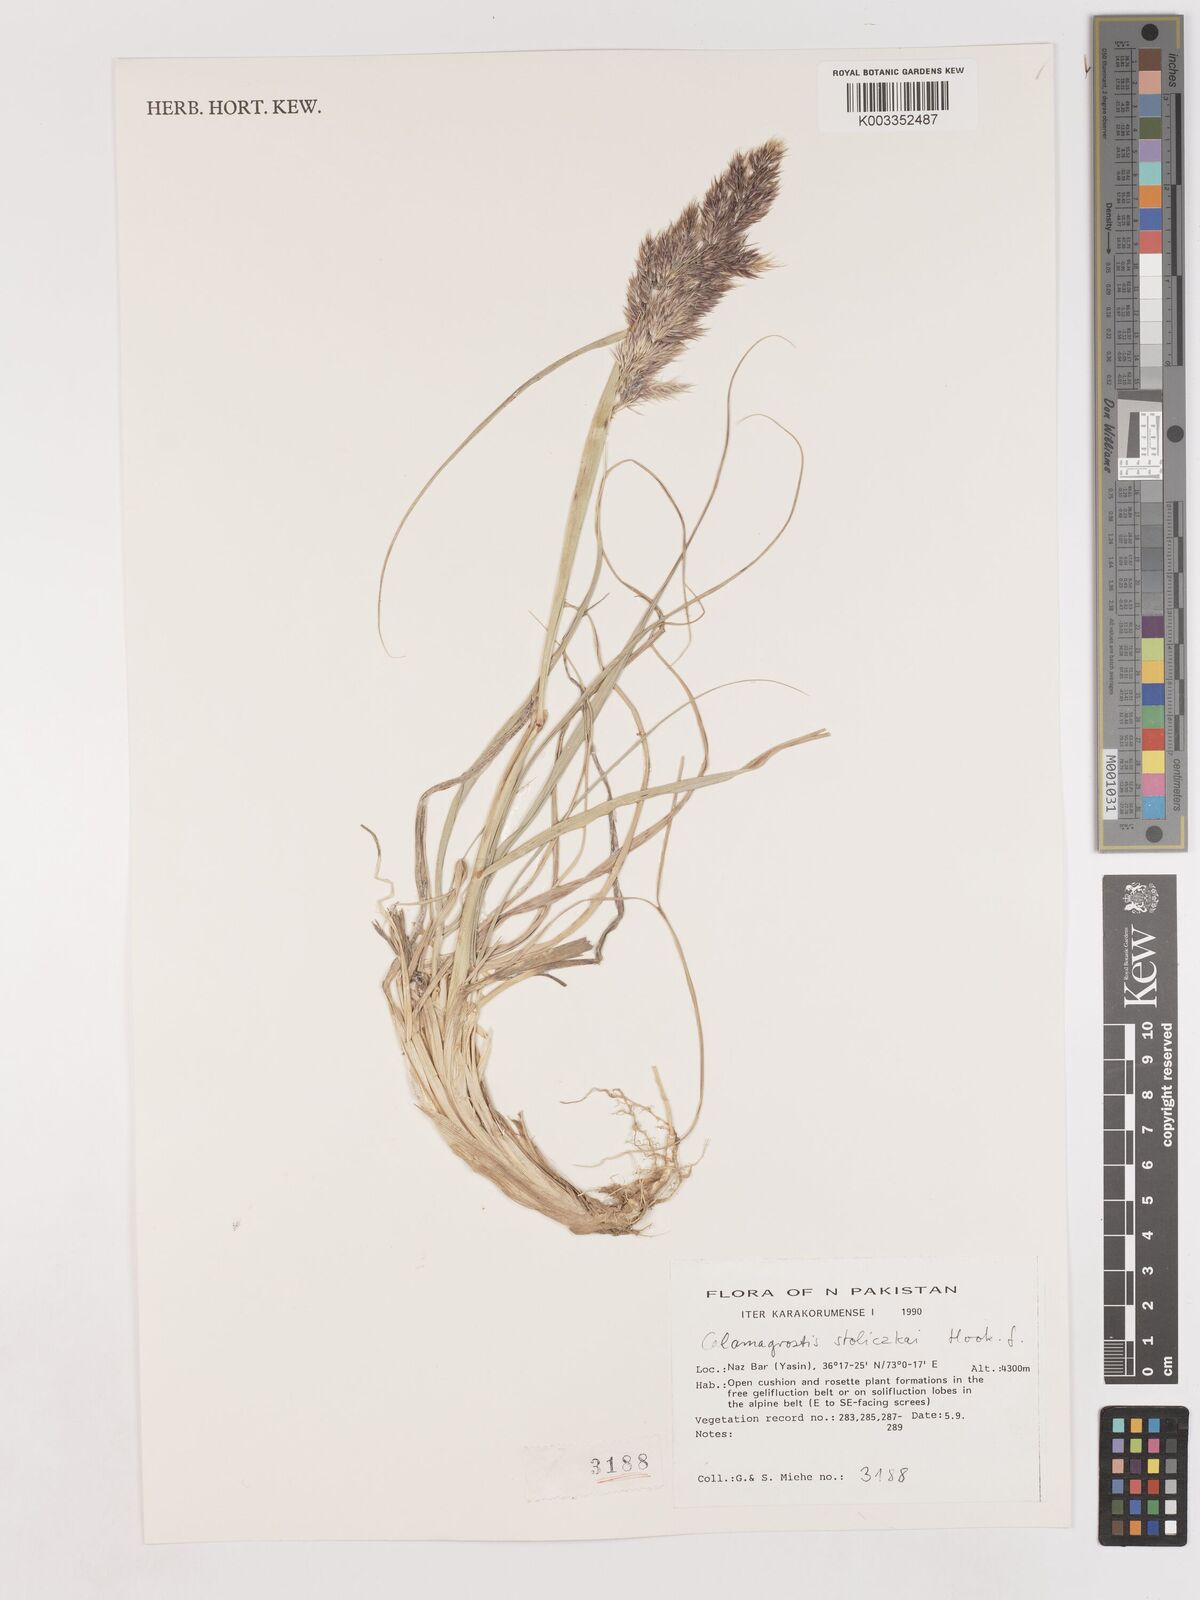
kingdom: Plantae
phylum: Tracheophyta
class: Liliopsida
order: Poales
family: Poaceae
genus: Calamagrostis
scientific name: Calamagrostis stolizkae
